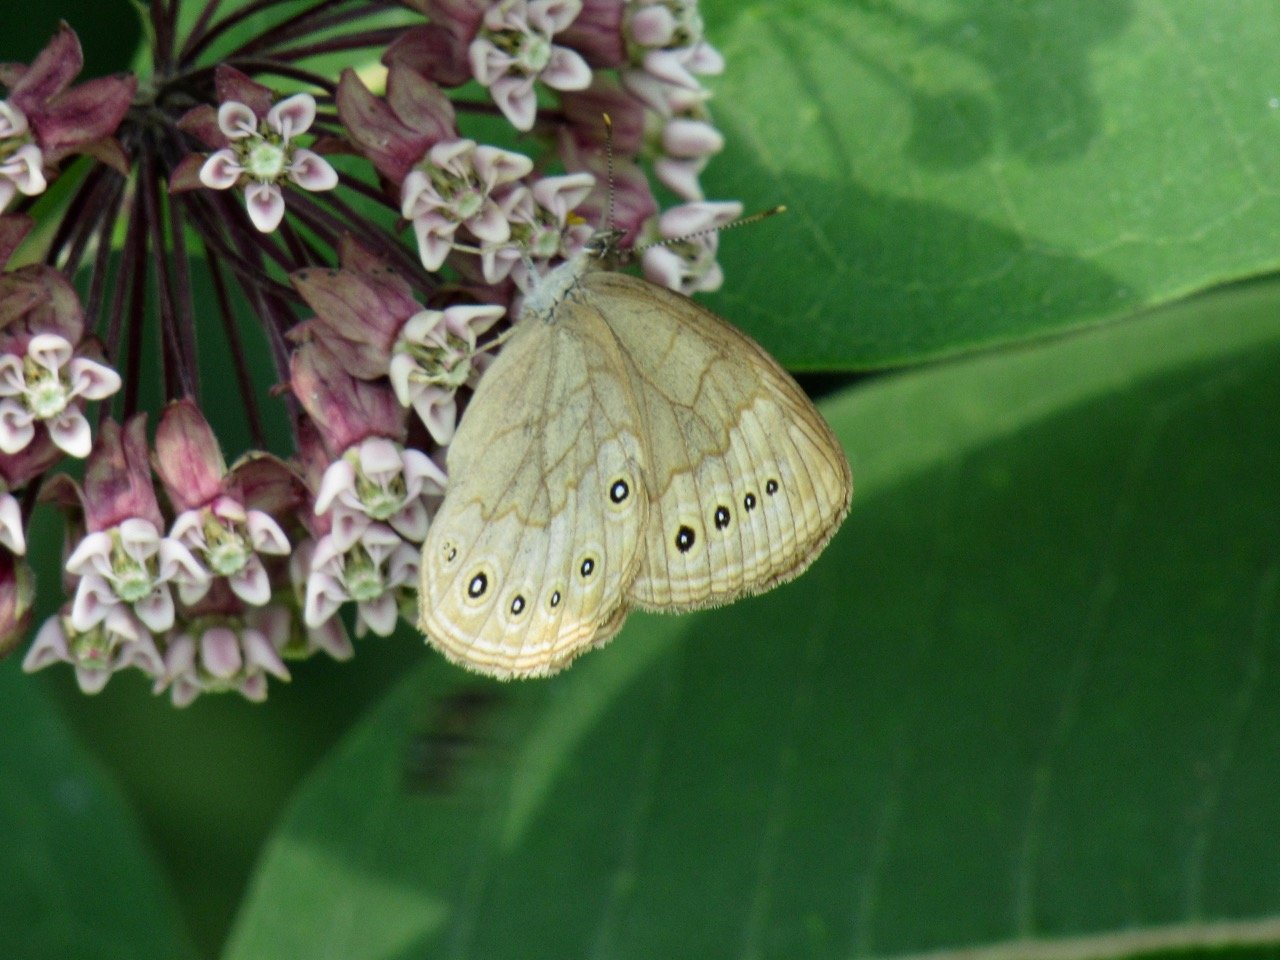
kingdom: Animalia
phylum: Arthropoda
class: Insecta
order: Lepidoptera
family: Nymphalidae
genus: Lethe
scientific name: Lethe eurydice
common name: Eyed Brown
